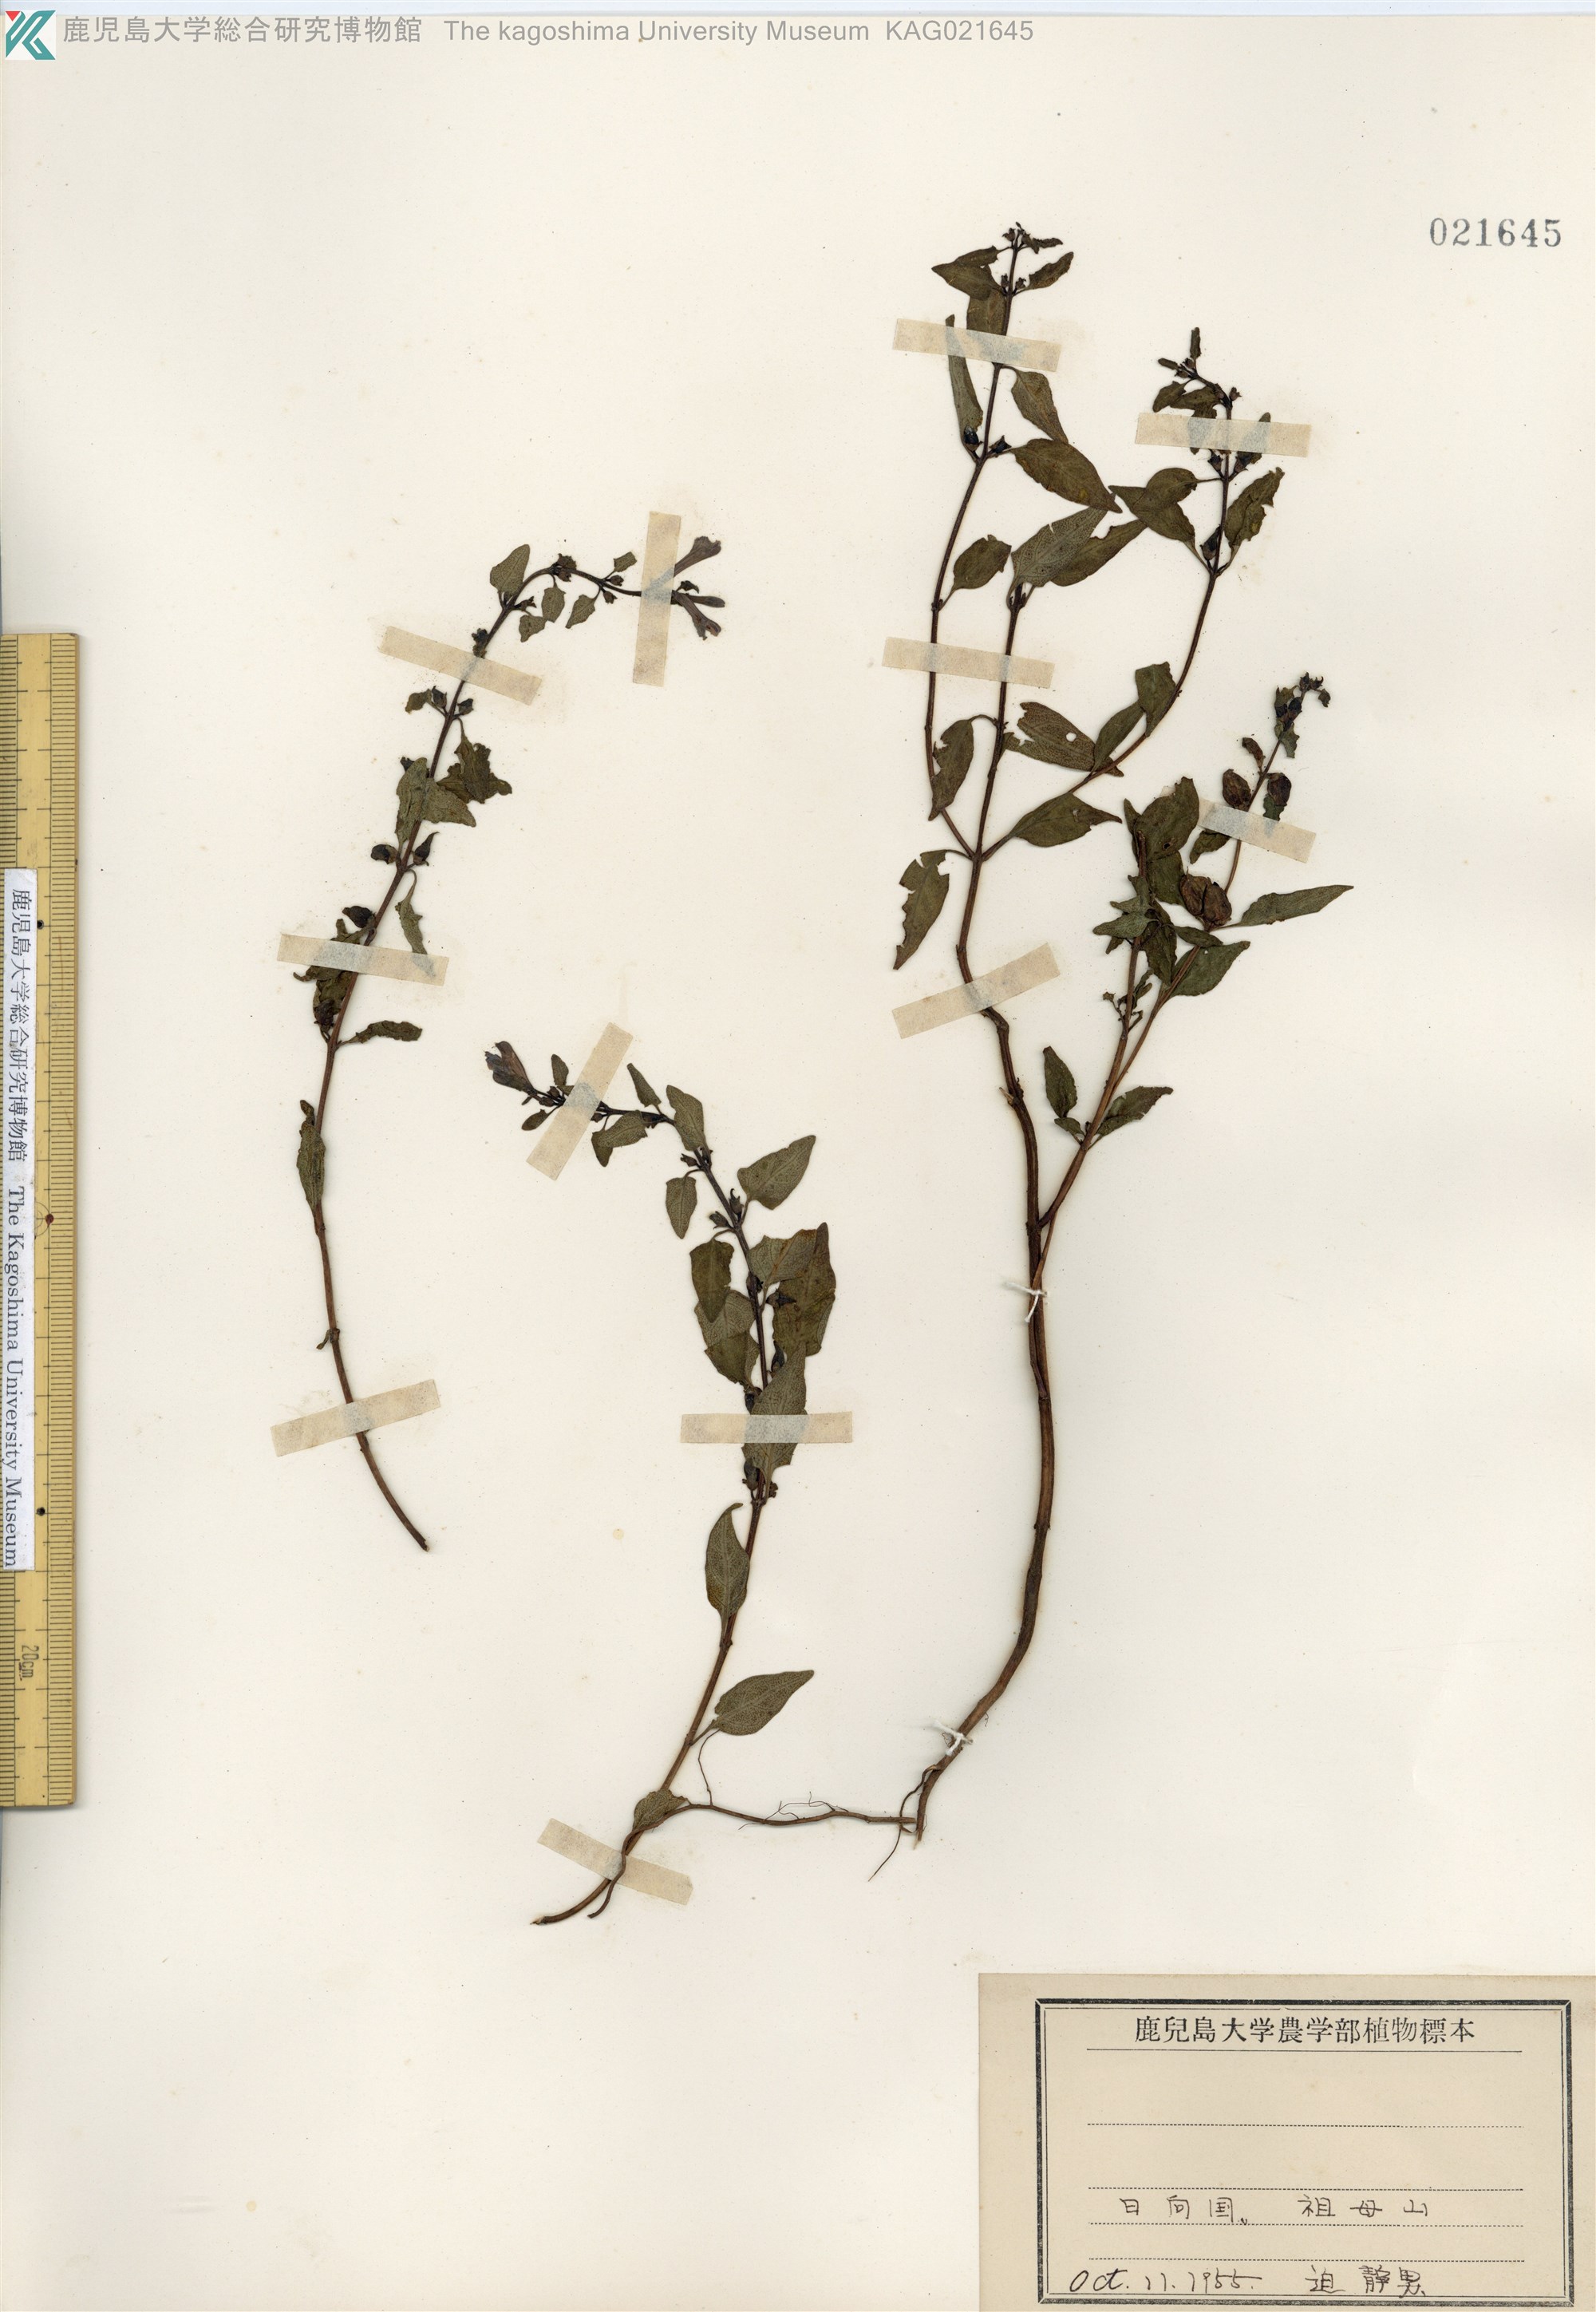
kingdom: Plantae
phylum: Tracheophyta
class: Magnoliopsida
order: Lamiales
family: Orobanchaceae
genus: Melampyrum
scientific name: Melampyrum laxum
